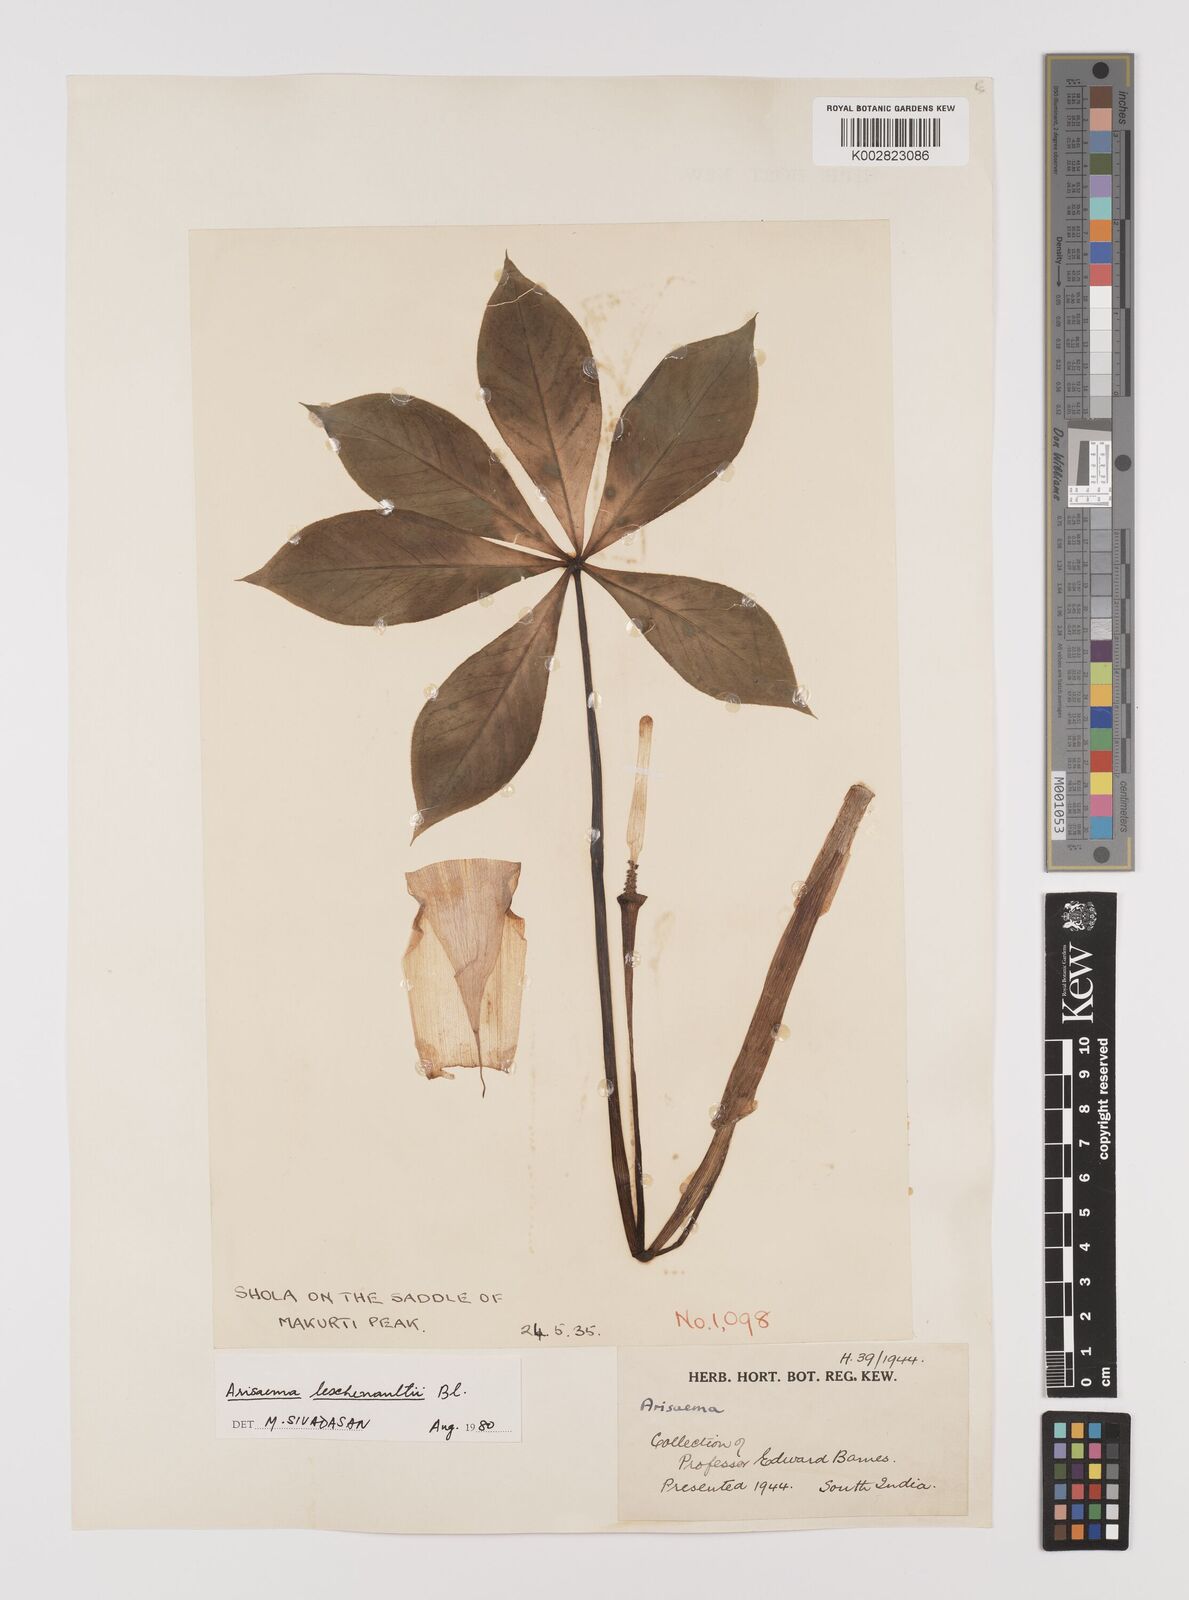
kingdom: Plantae
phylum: Tracheophyta
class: Liliopsida
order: Alismatales
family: Araceae
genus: Arisaema
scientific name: Arisaema leschenaultii
